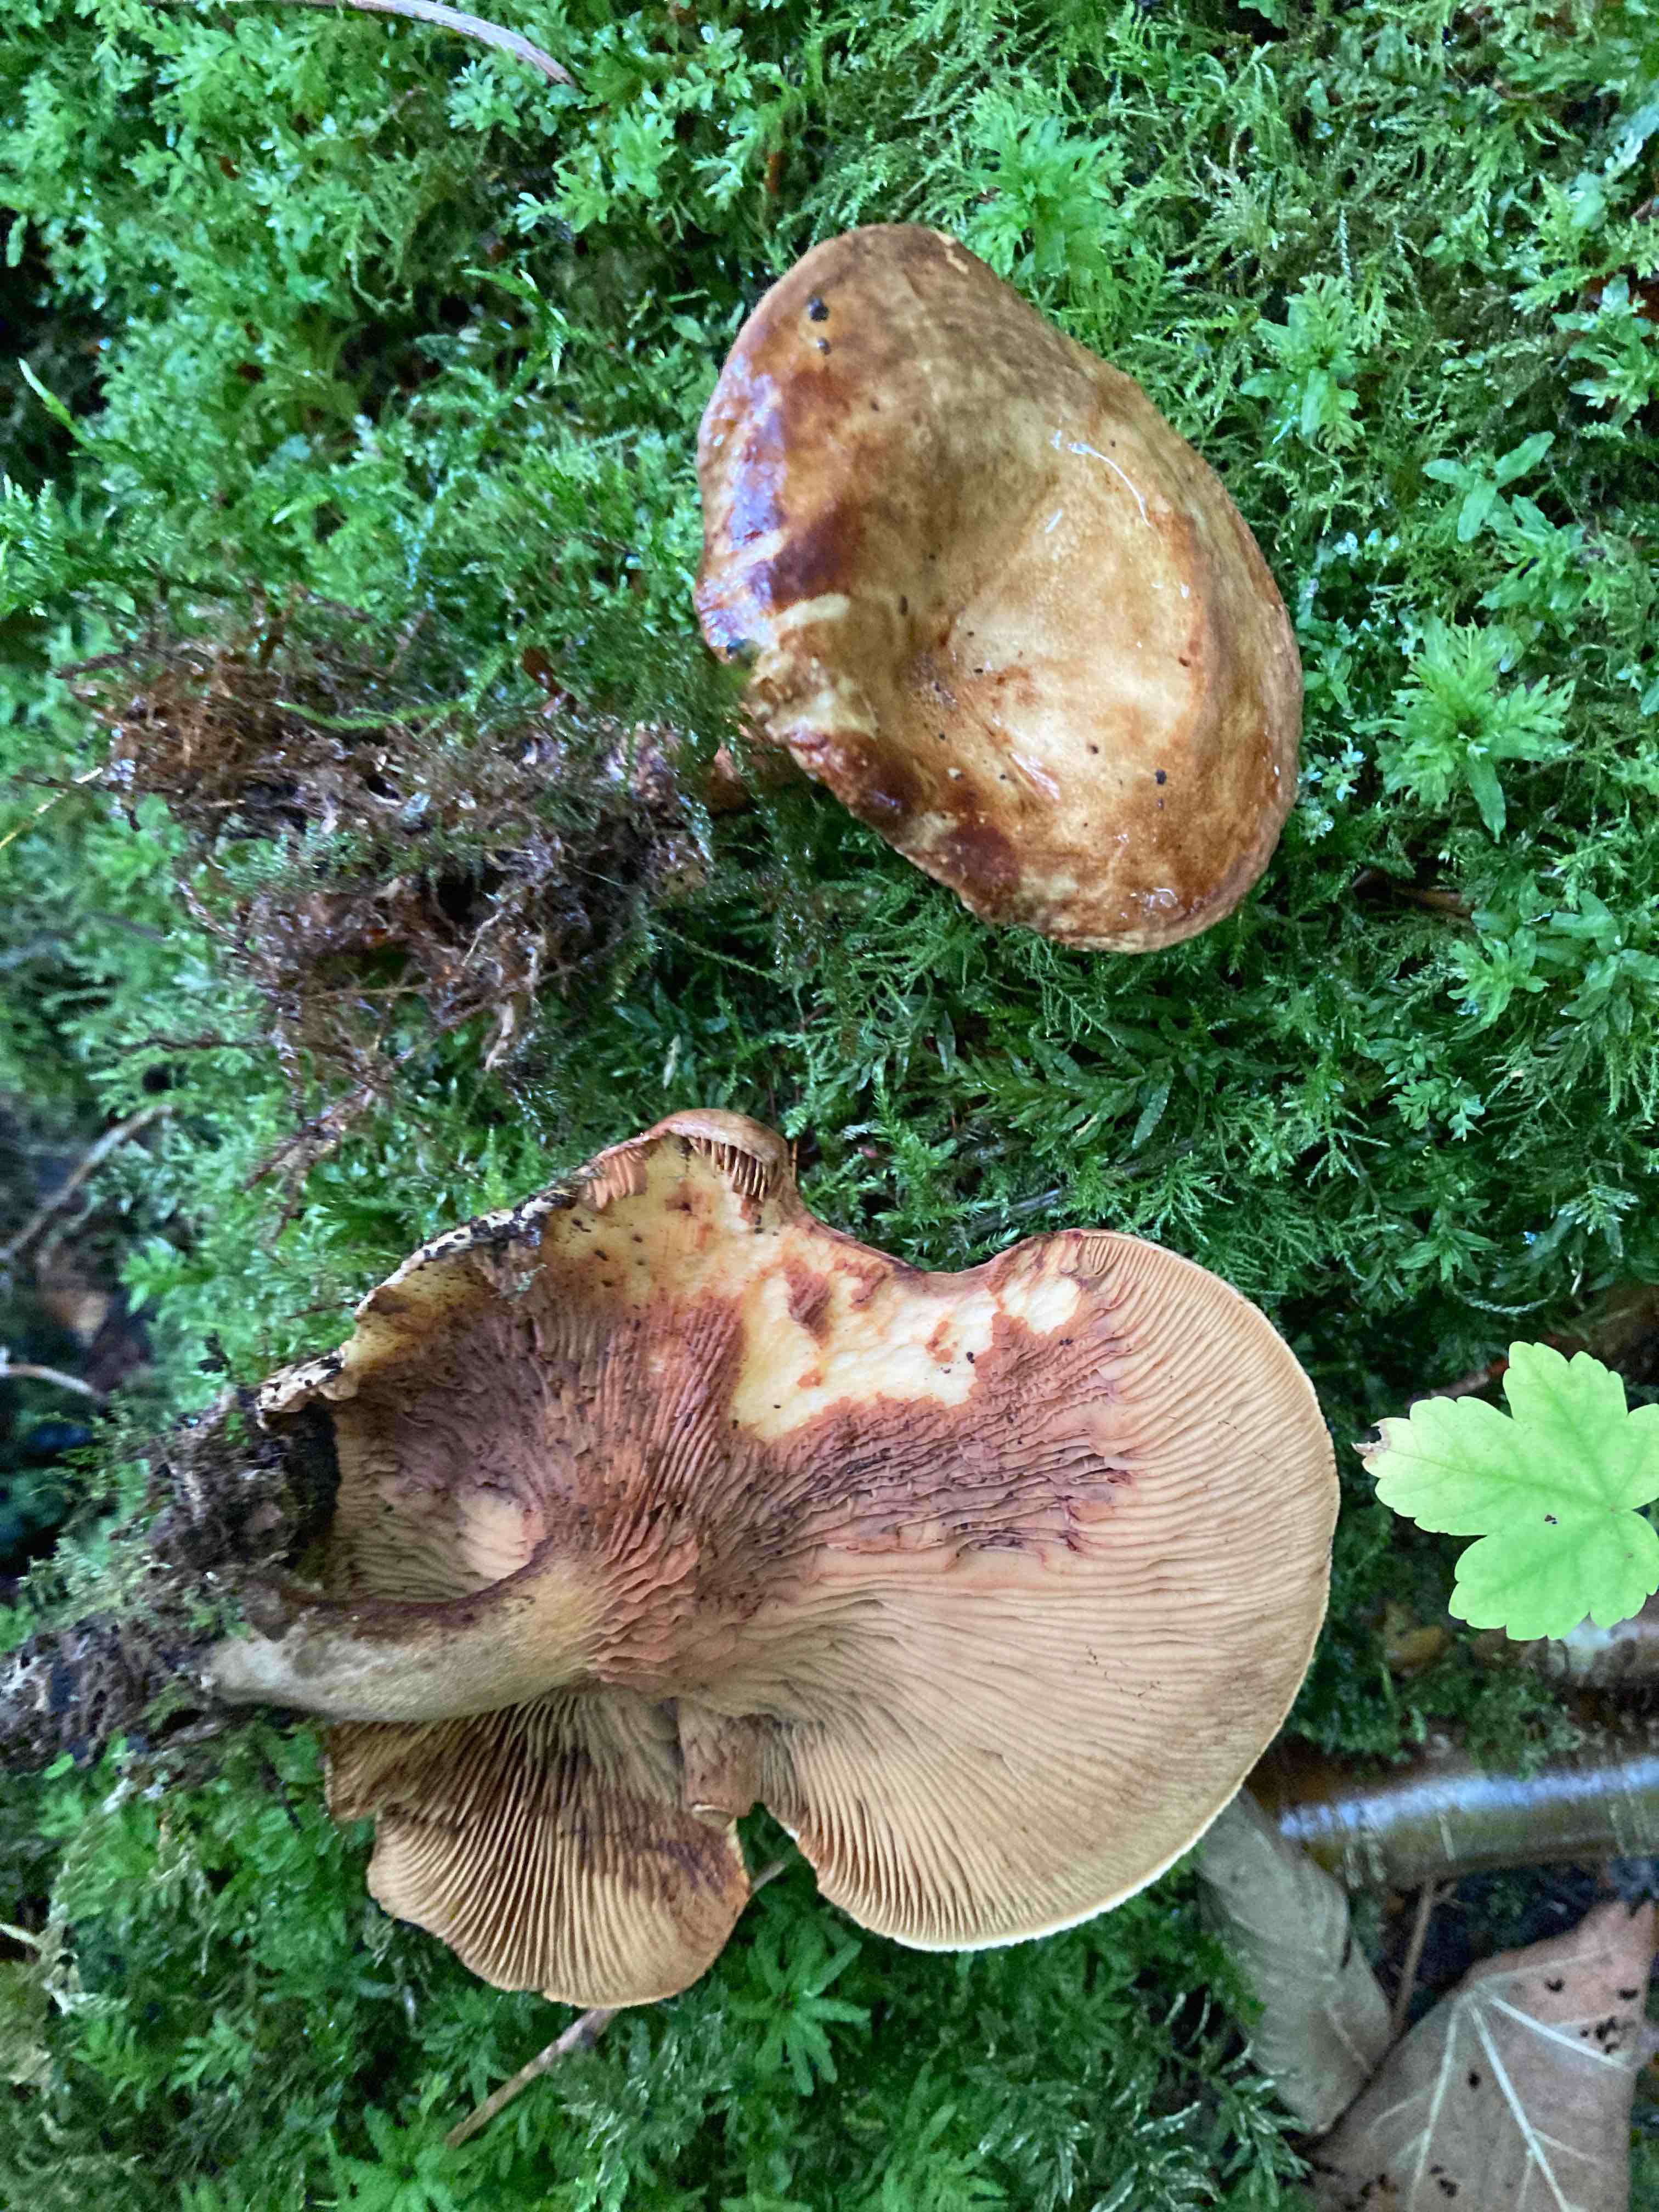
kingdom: Fungi
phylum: Basidiomycota
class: Agaricomycetes
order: Boletales
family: Paxillaceae
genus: Paxillus
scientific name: Paxillus cuprinus
